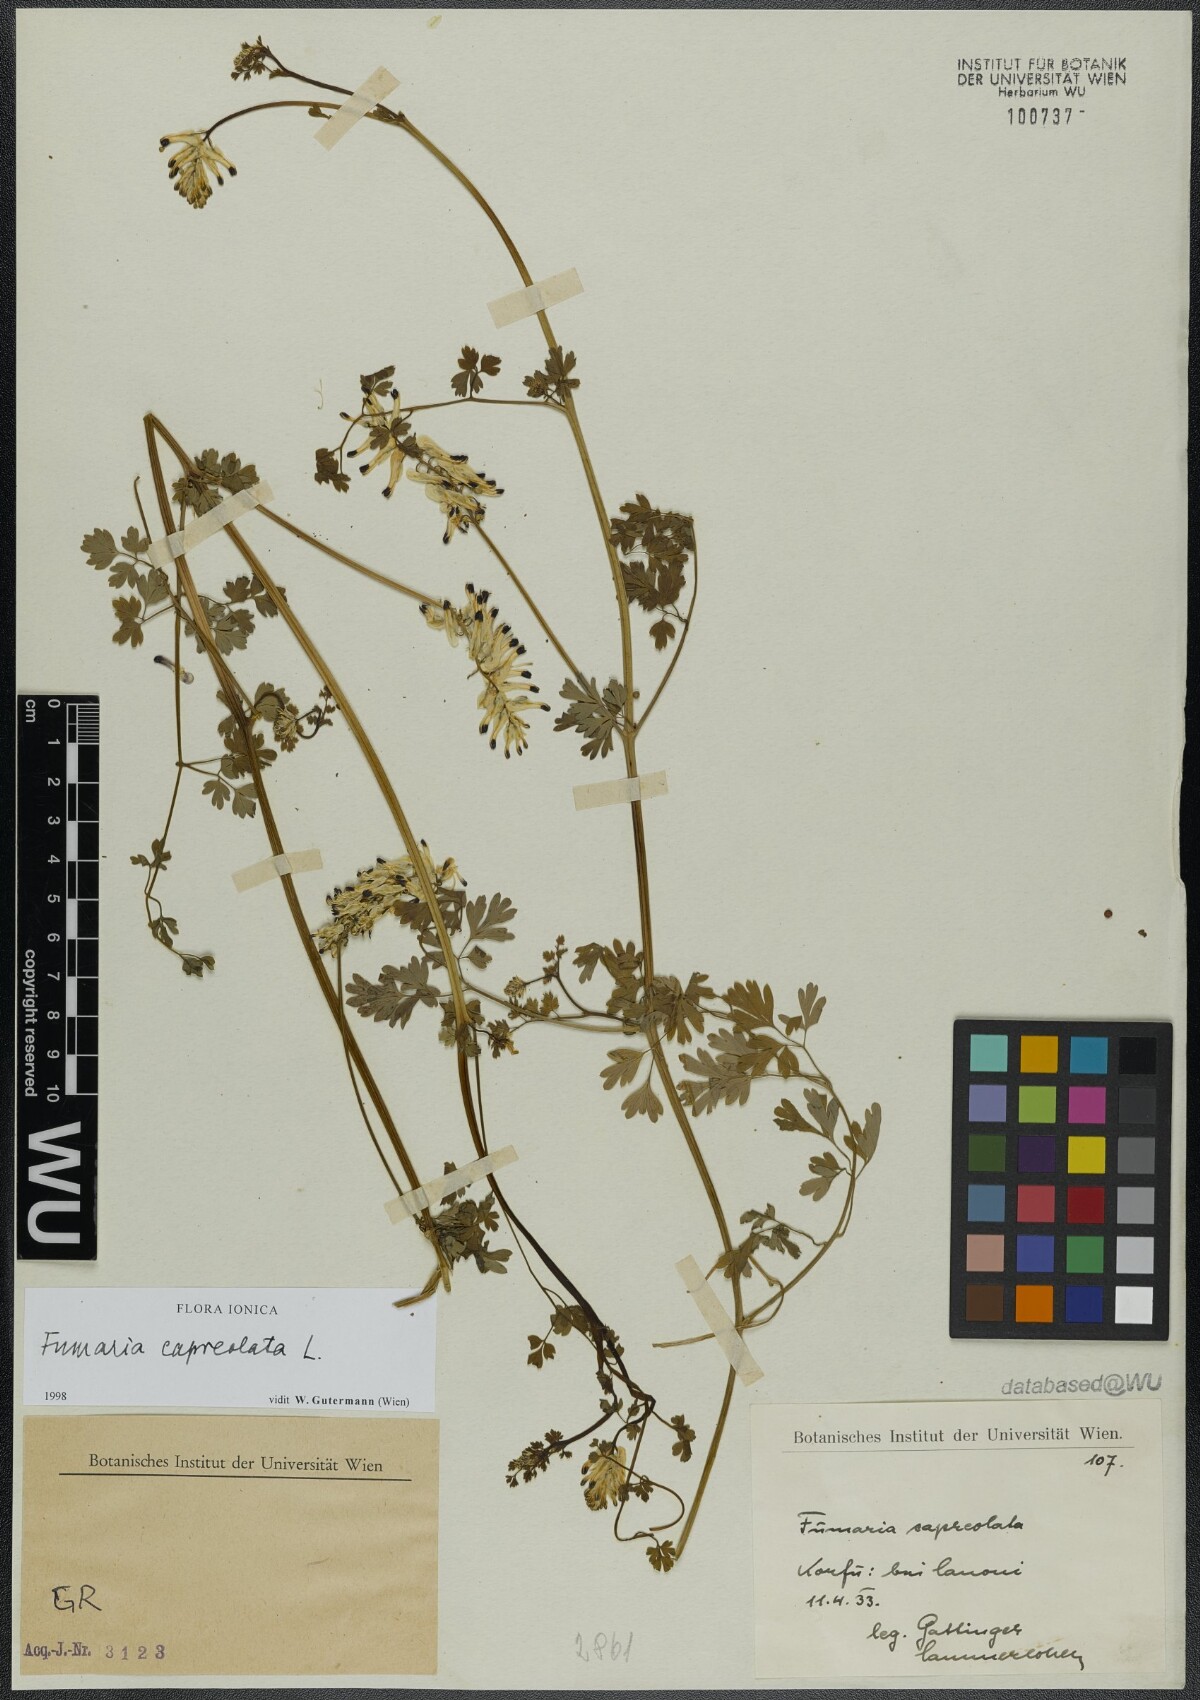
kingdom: Plantae
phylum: Tracheophyta
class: Magnoliopsida
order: Ranunculales
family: Papaveraceae
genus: Fumaria
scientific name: Fumaria capreolata
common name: White ramping-fumitory
